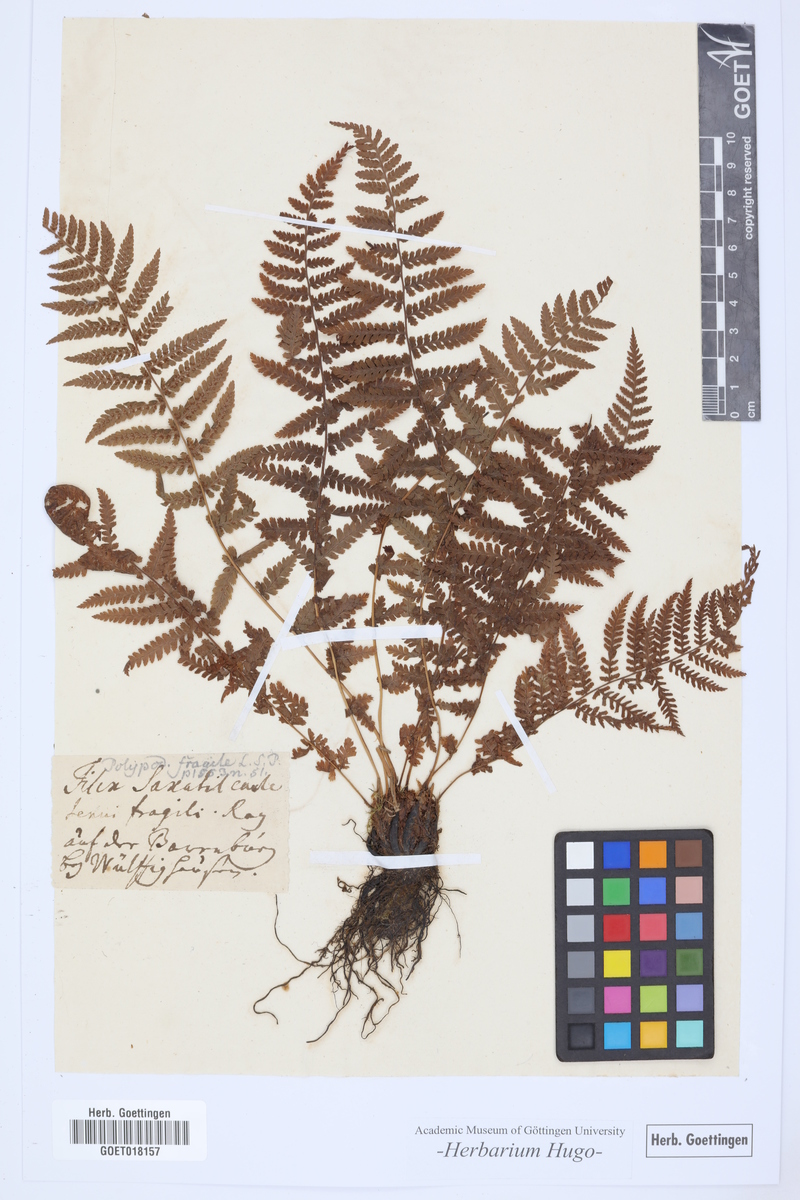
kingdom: Plantae
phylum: Tracheophyta
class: Polypodiopsida
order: Polypodiales
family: Cystopteridaceae
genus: Cystopteris
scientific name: Cystopteris fragilis
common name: Brittle bladder fern
